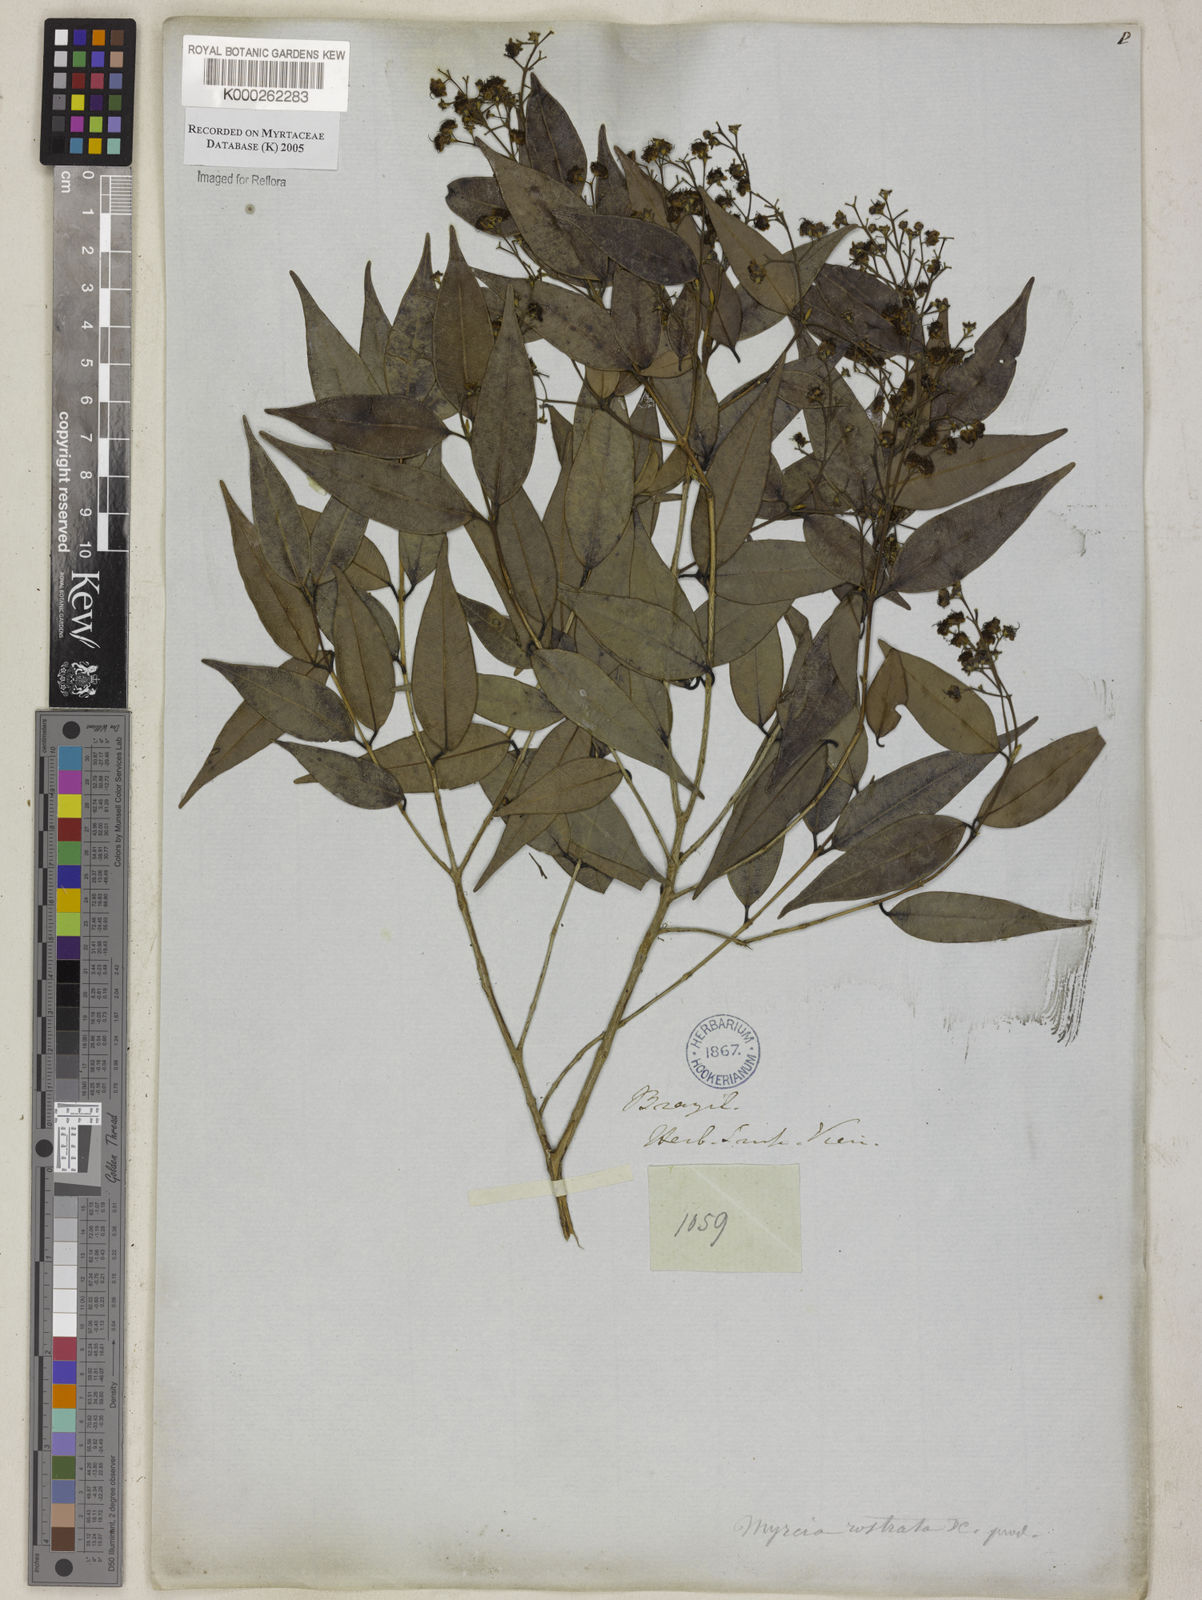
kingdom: Plantae
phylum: Tracheophyta
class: Magnoliopsida
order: Myrtales
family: Myrtaceae
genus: Myrcia
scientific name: Myrcia splendens
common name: Surinam cherry
